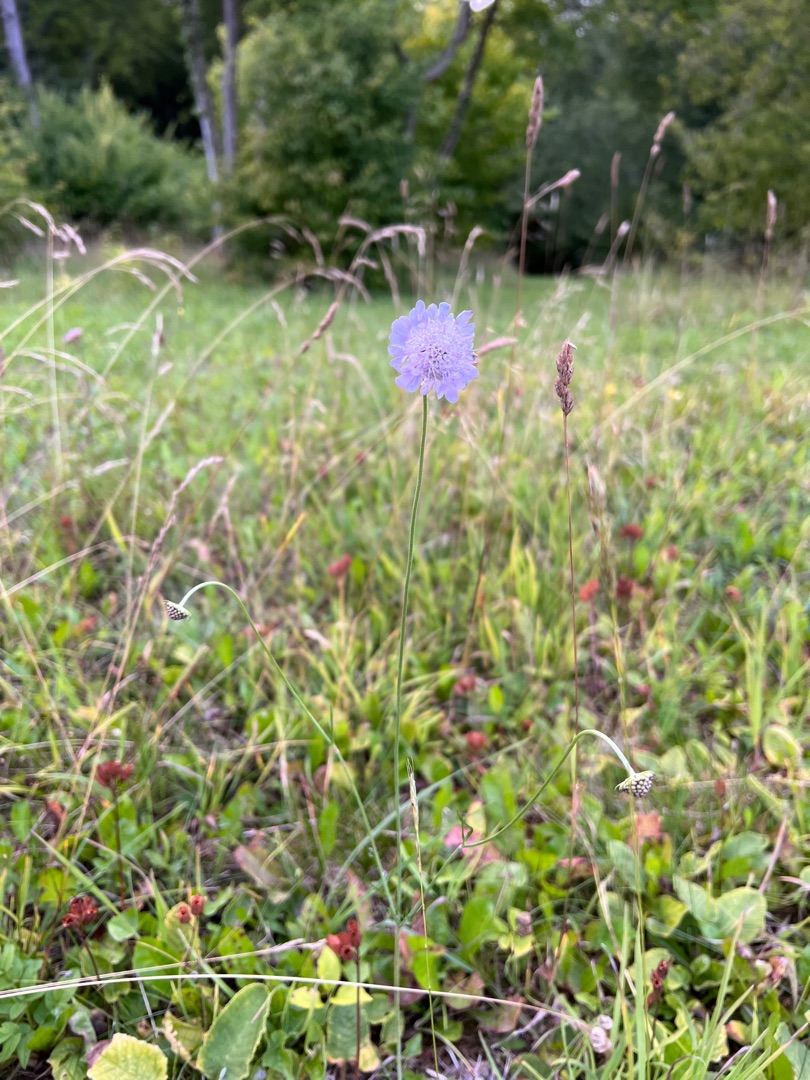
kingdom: Plantae
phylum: Tracheophyta
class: Magnoliopsida
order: Dipsacales
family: Caprifoliaceae
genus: Scabiosa
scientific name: Scabiosa columbaria
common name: Due-skabiose
